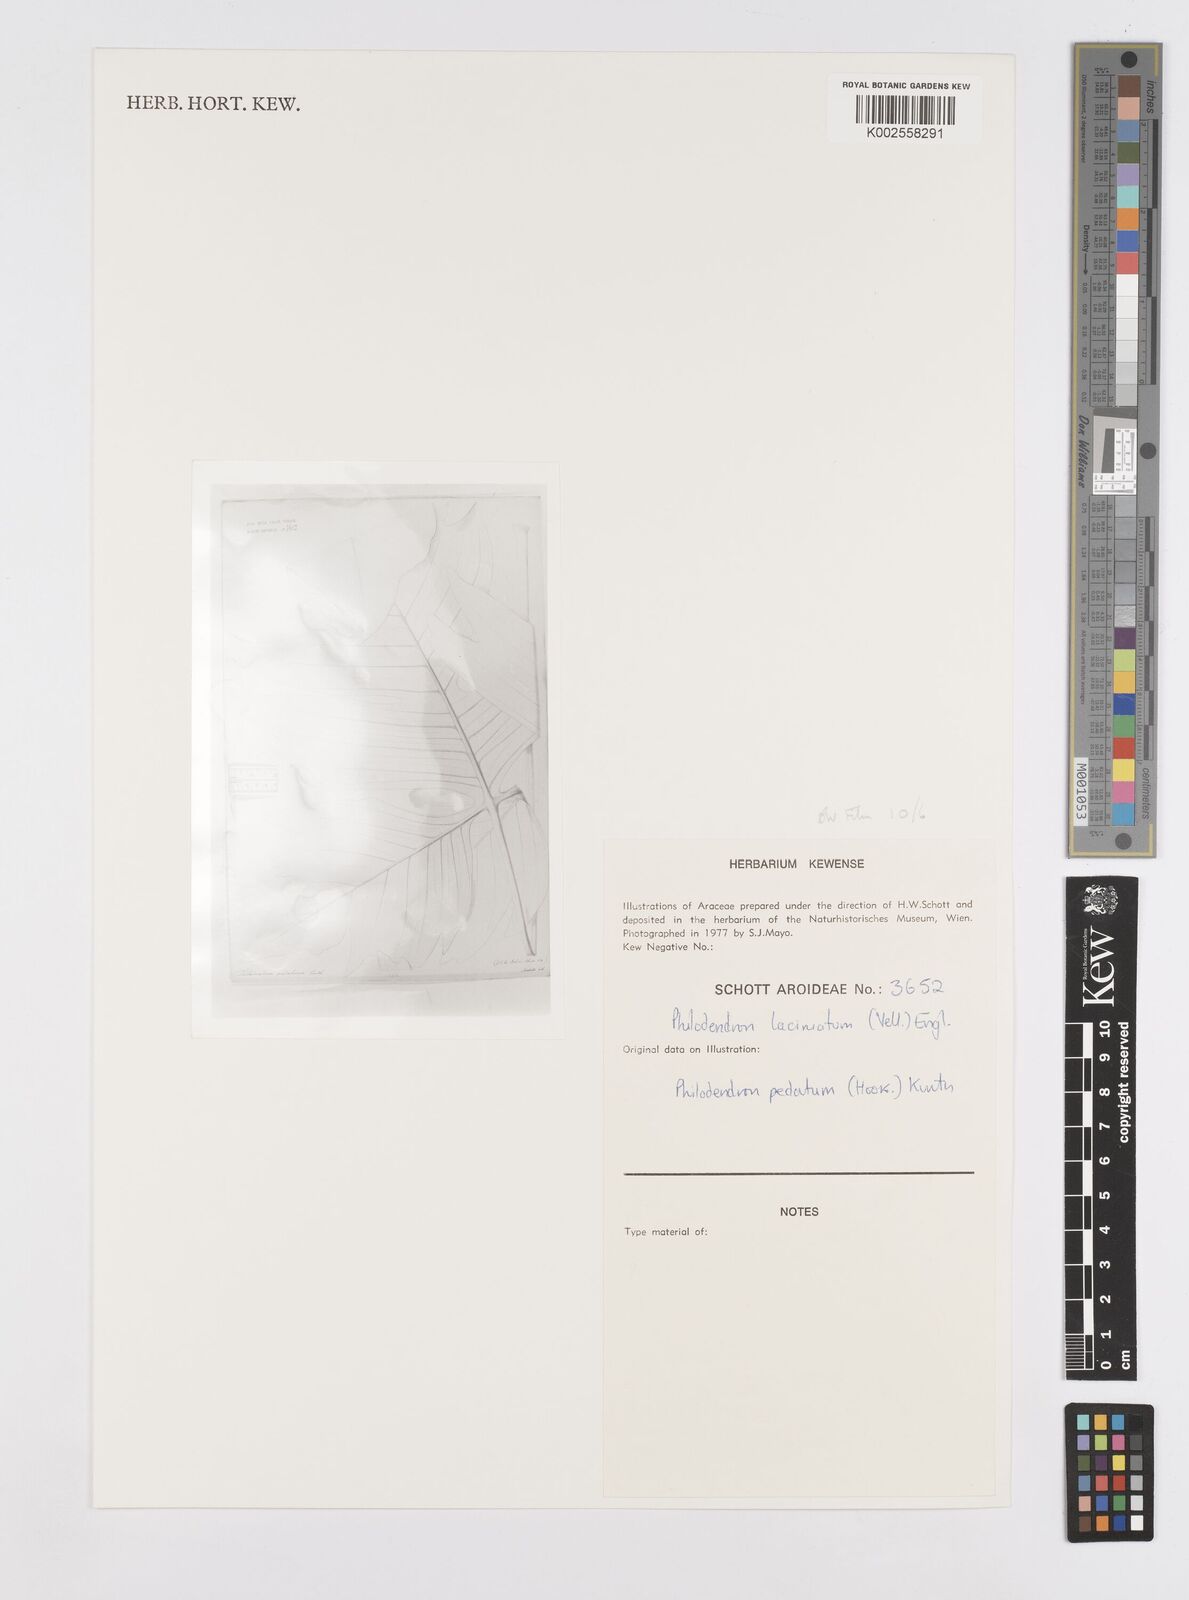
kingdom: Plantae
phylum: Tracheophyta
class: Liliopsida
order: Alismatales
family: Araceae
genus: Philodendron
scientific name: Philodendron pedatum
